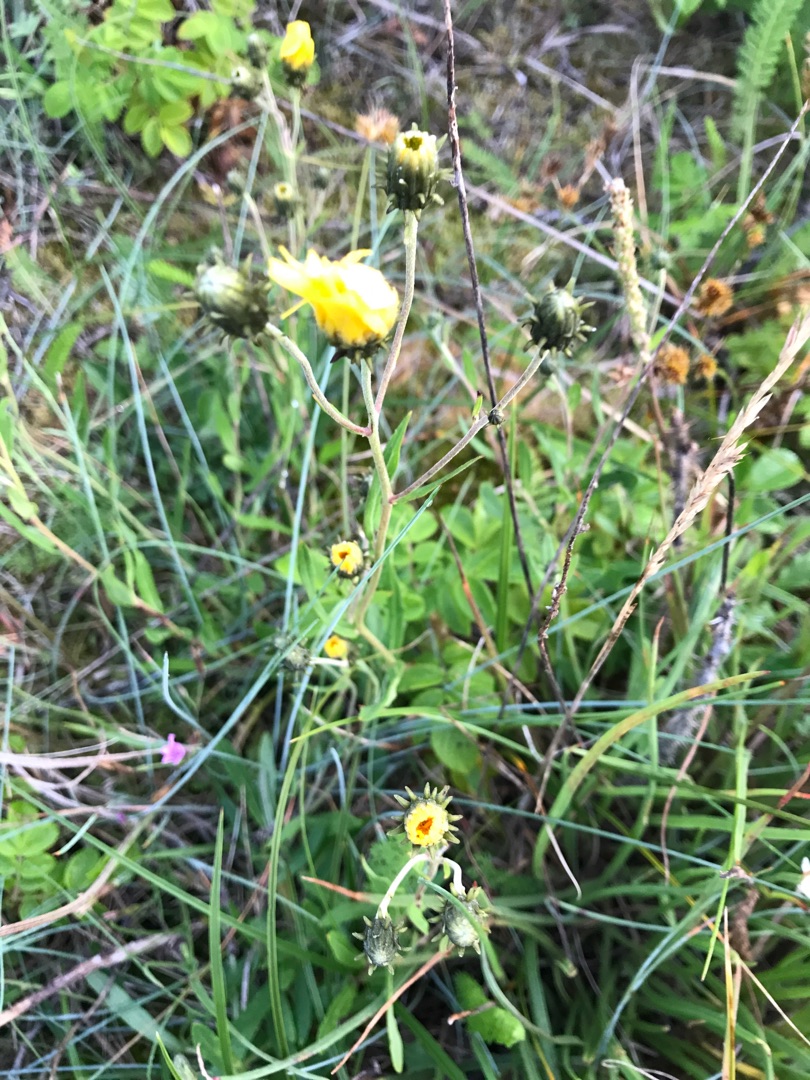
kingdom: Plantae
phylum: Tracheophyta
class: Magnoliopsida
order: Asterales
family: Asteraceae
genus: Hieracium
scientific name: Hieracium umbellatum
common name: Smalbladet høgeurt
